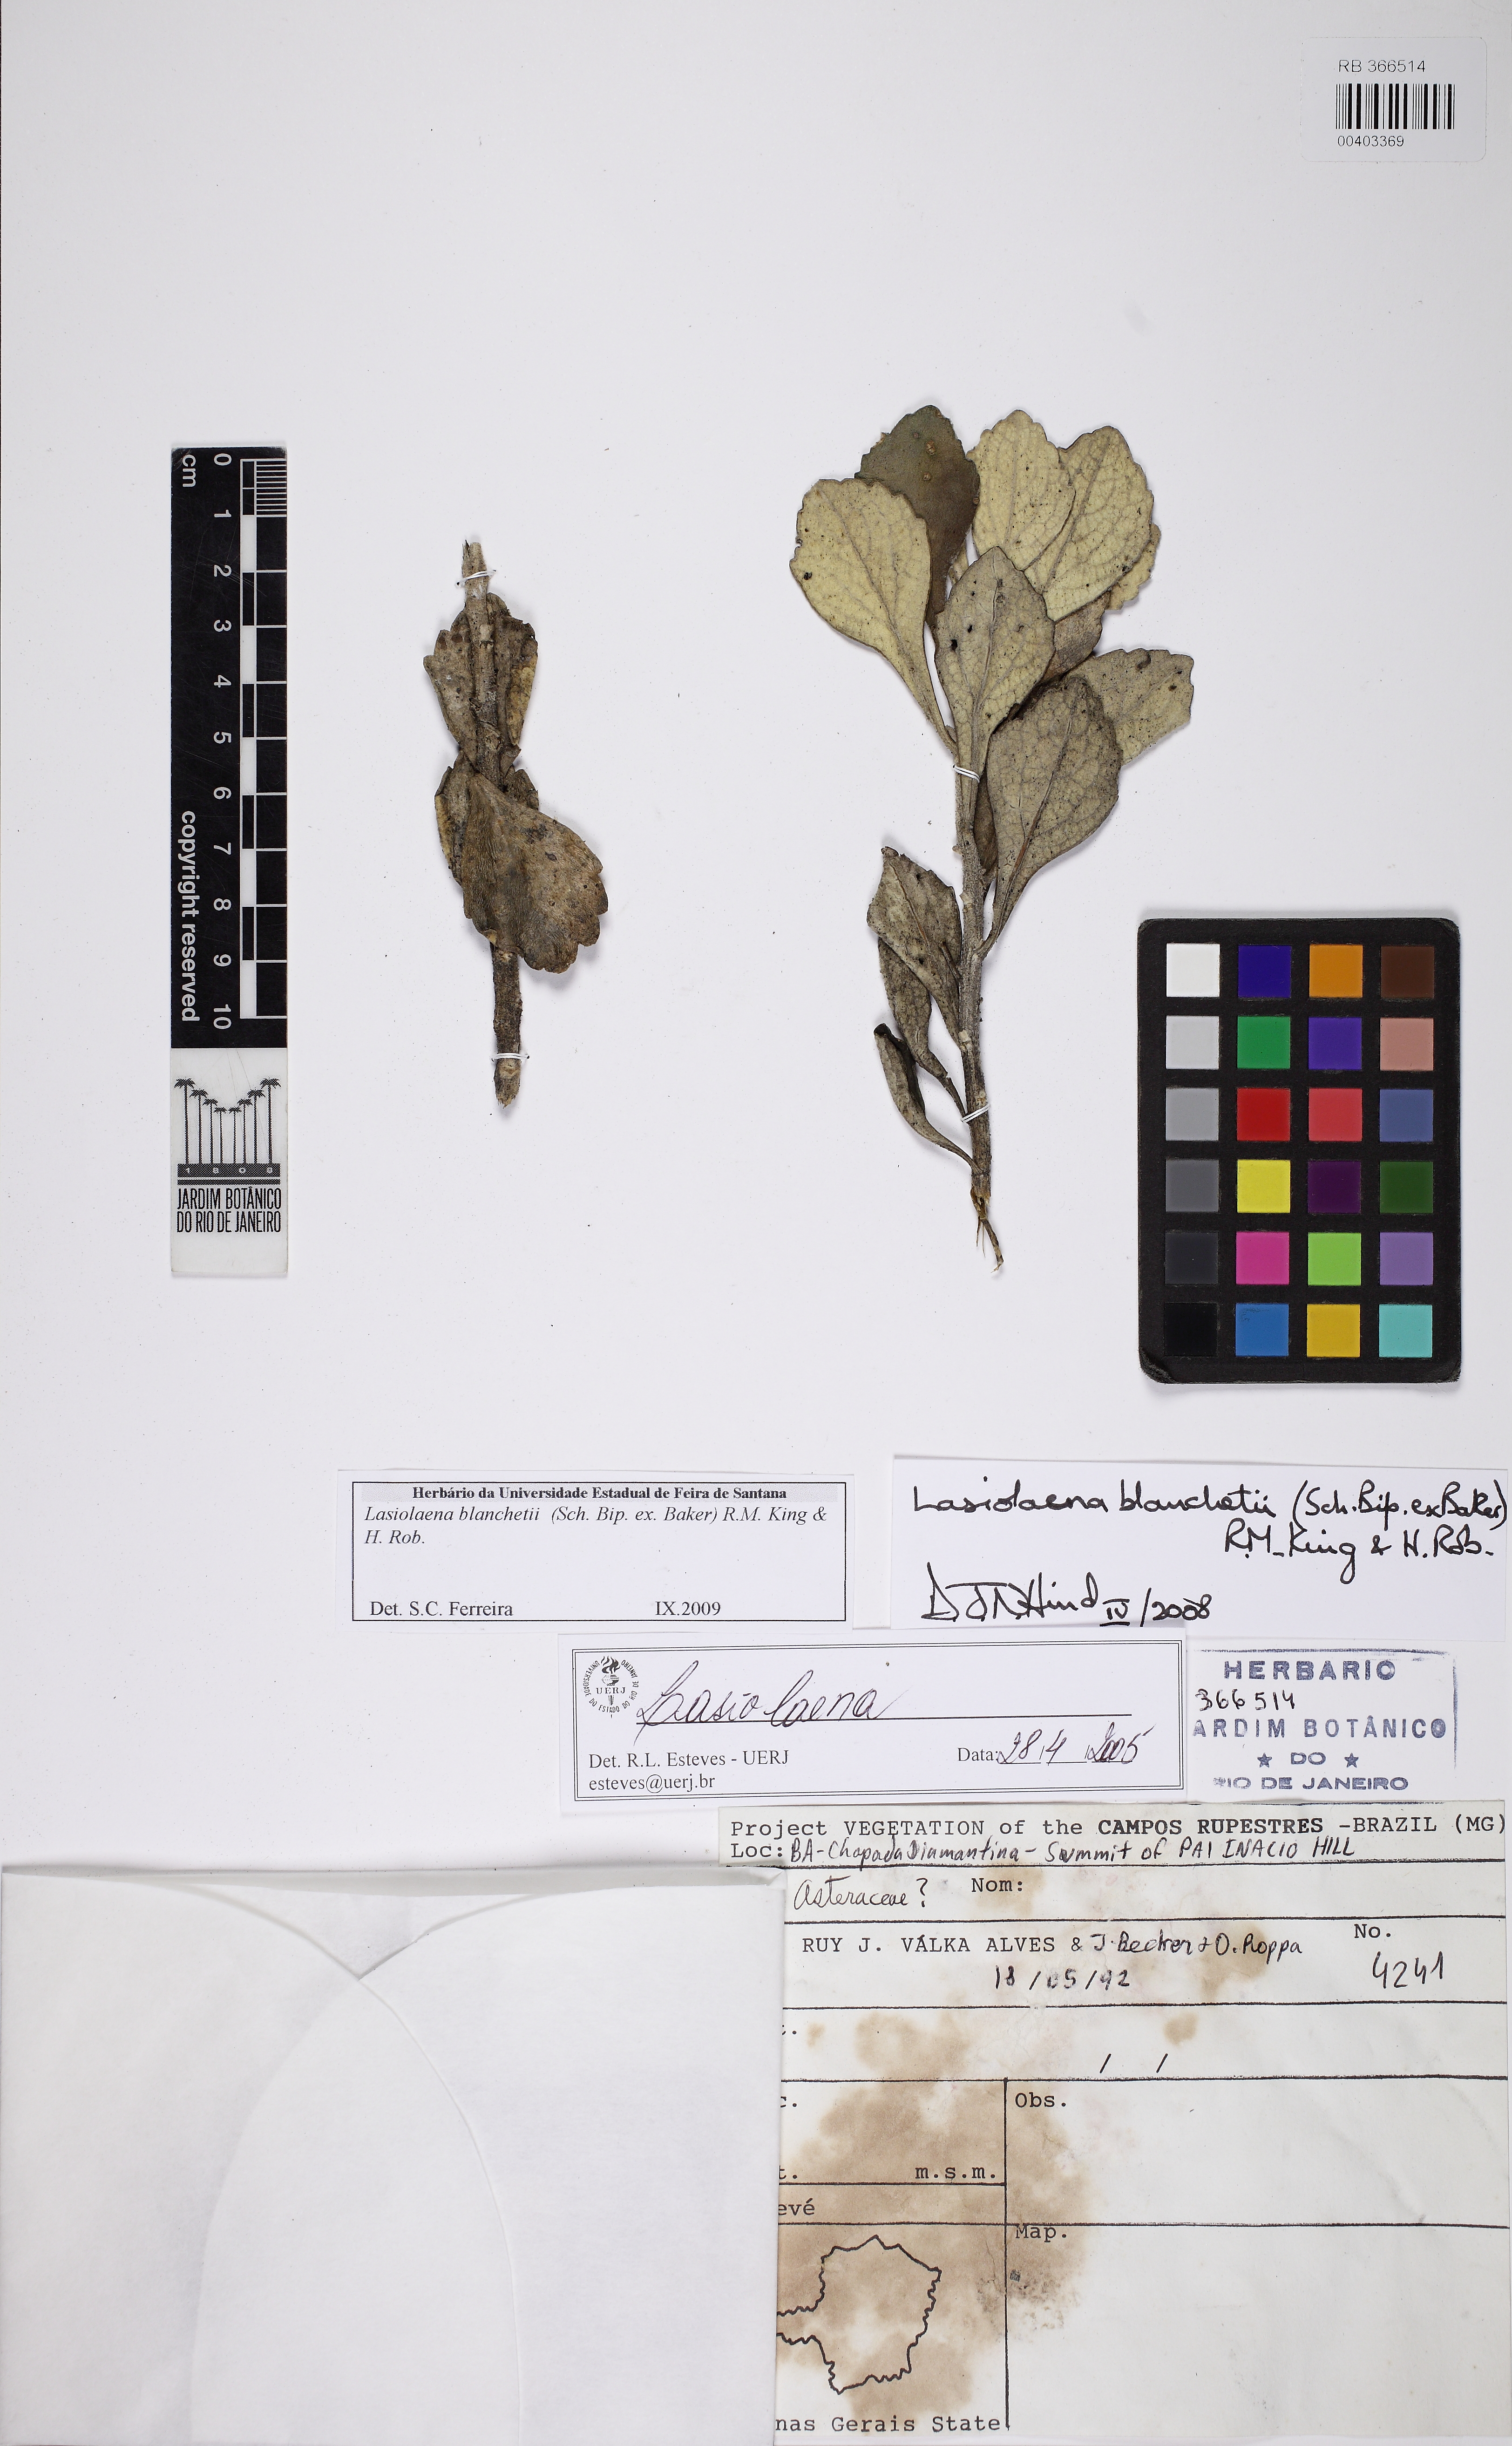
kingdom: Plantae
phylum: Tracheophyta
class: Magnoliopsida
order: Asterales
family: Asteraceae
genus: Lasiolaena
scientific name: Lasiolaena blanchetii
